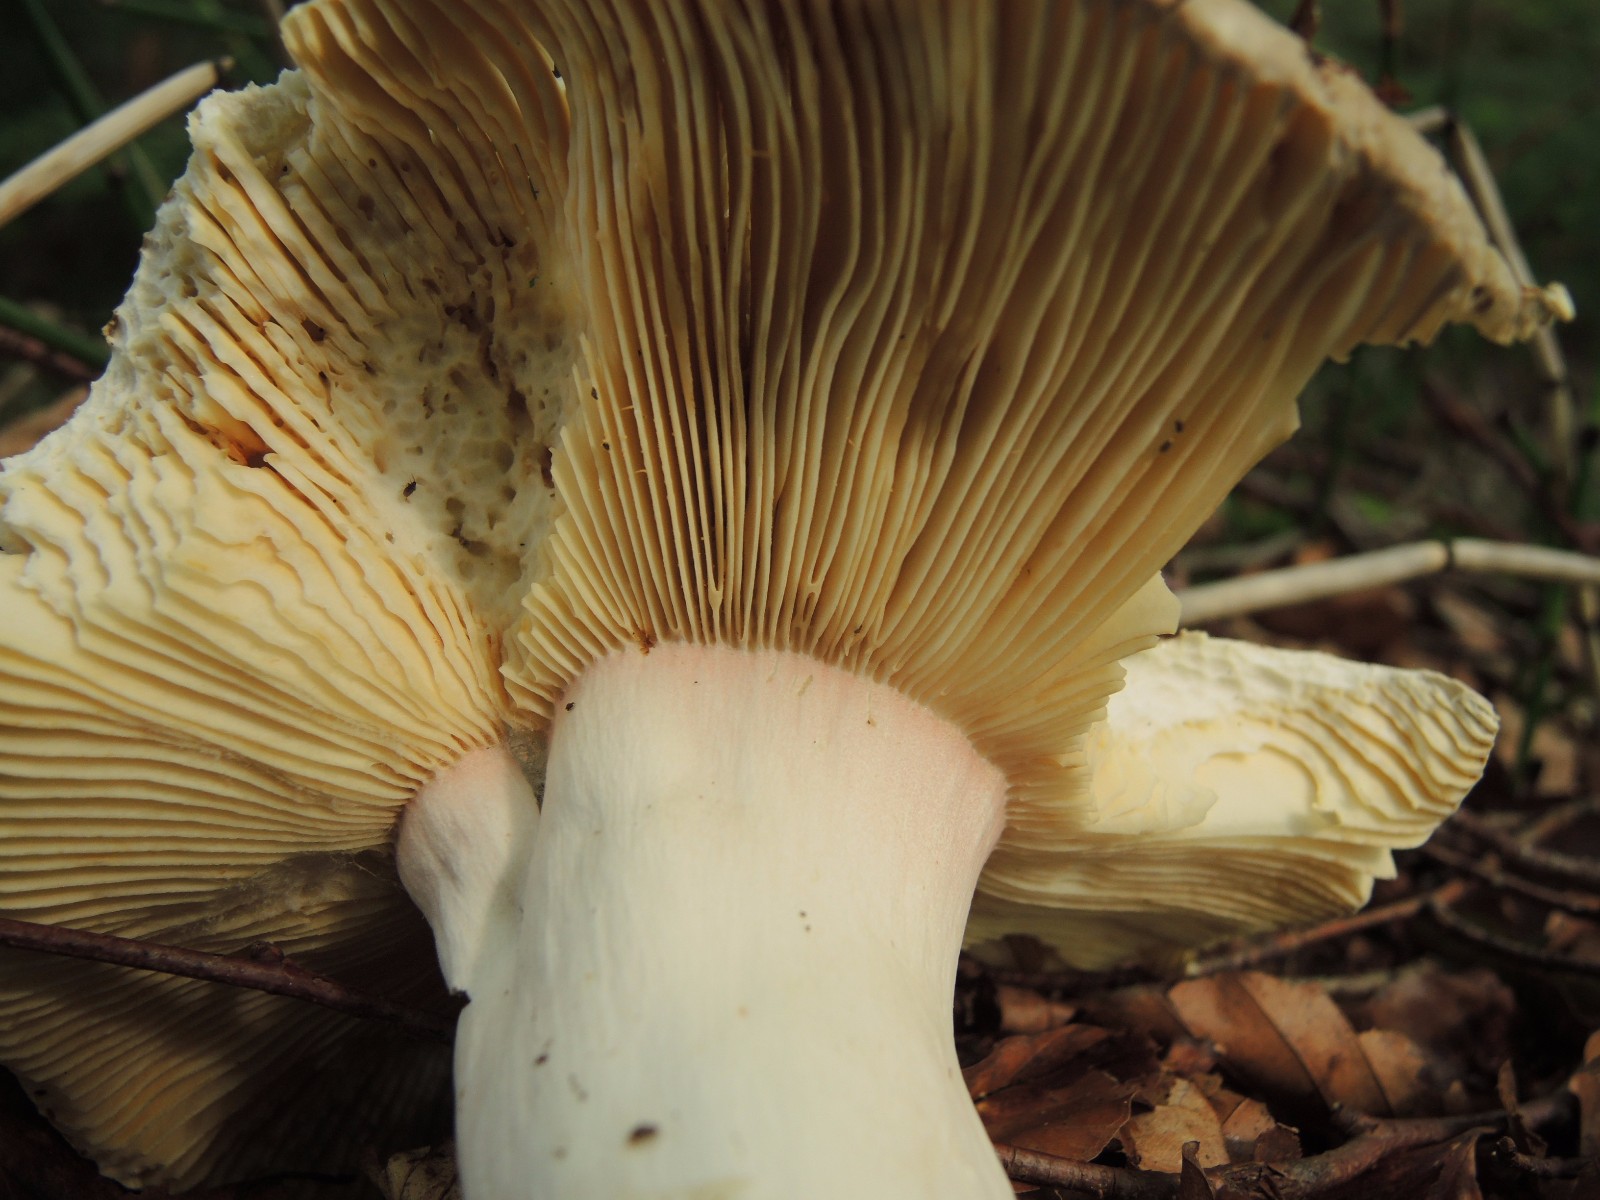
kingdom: Fungi
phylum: Basidiomycota
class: Agaricomycetes
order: Russulales
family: Russulaceae
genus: Russula
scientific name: Russula olivacea
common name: stor skørhat
